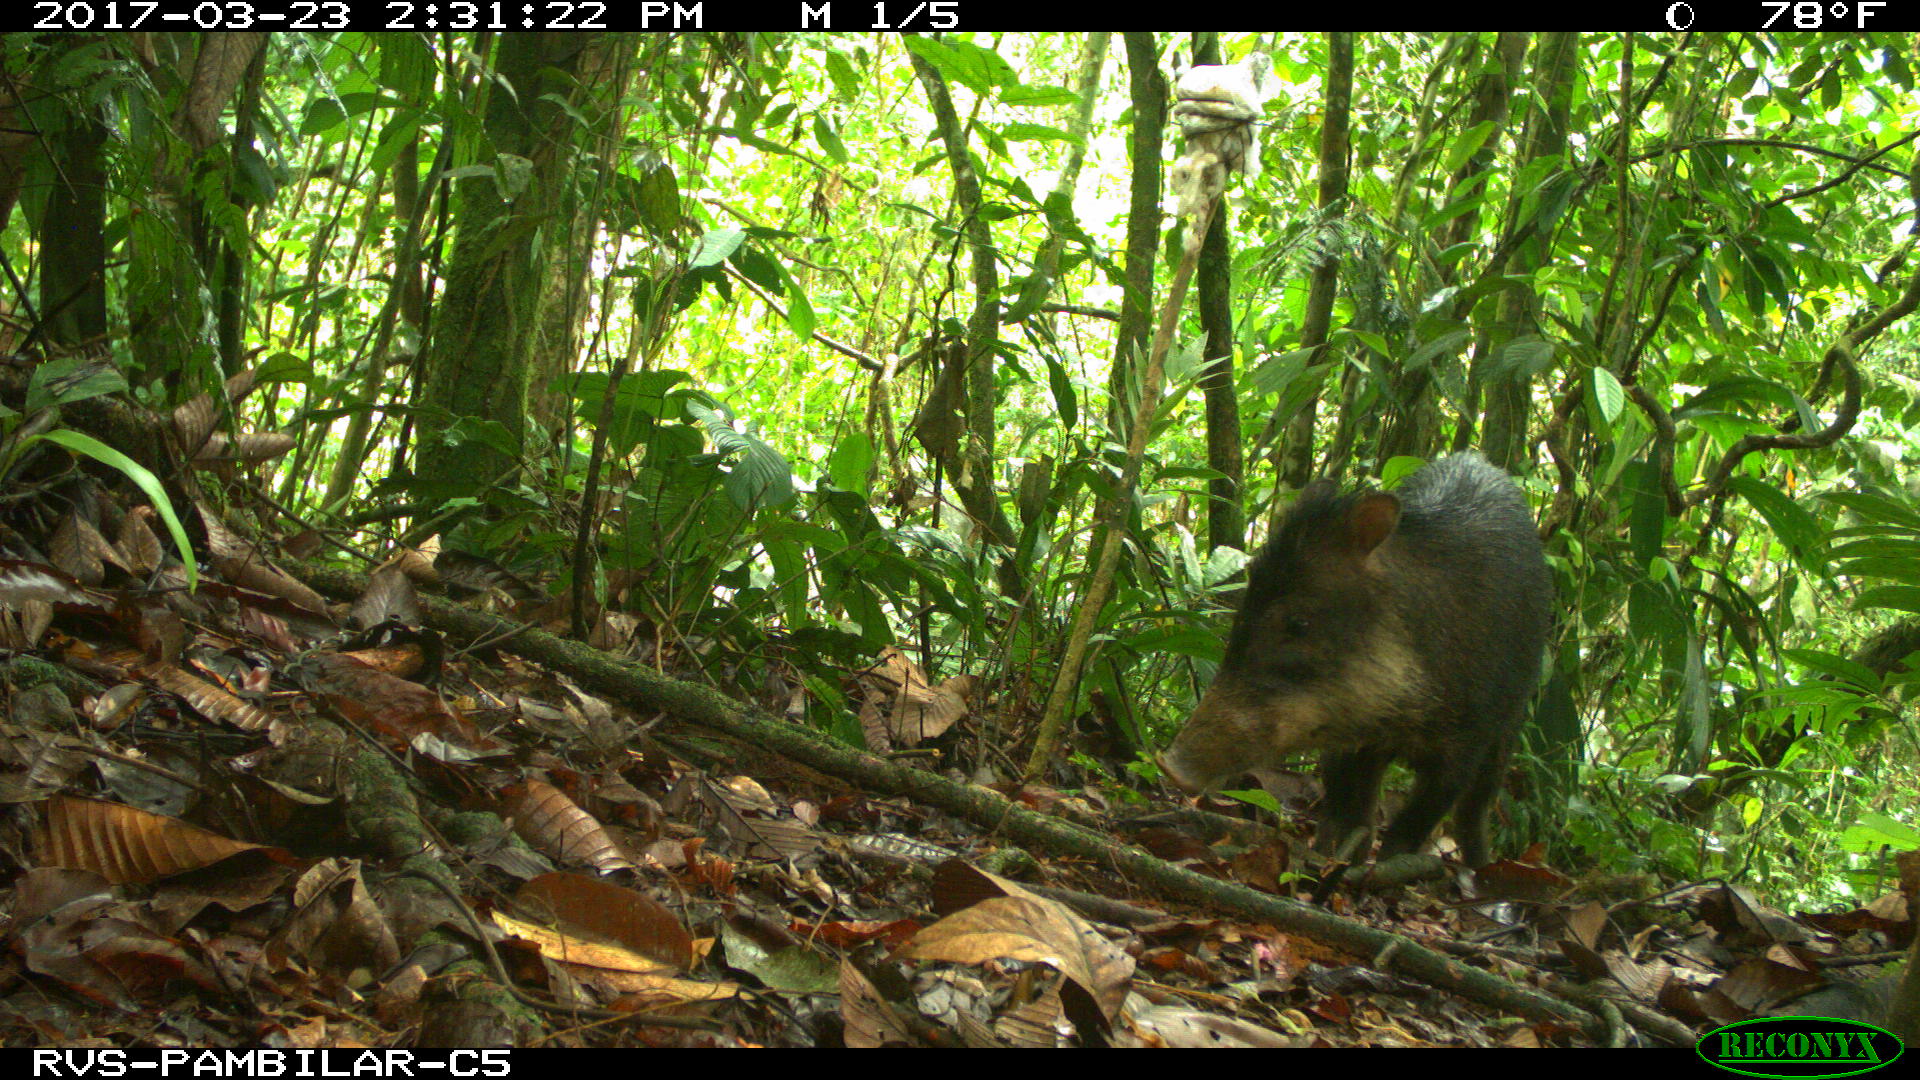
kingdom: Animalia
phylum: Chordata
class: Mammalia
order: Artiodactyla
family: Tayassuidae
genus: Tayassu
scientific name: Tayassu pecari
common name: White-lipped peccary
